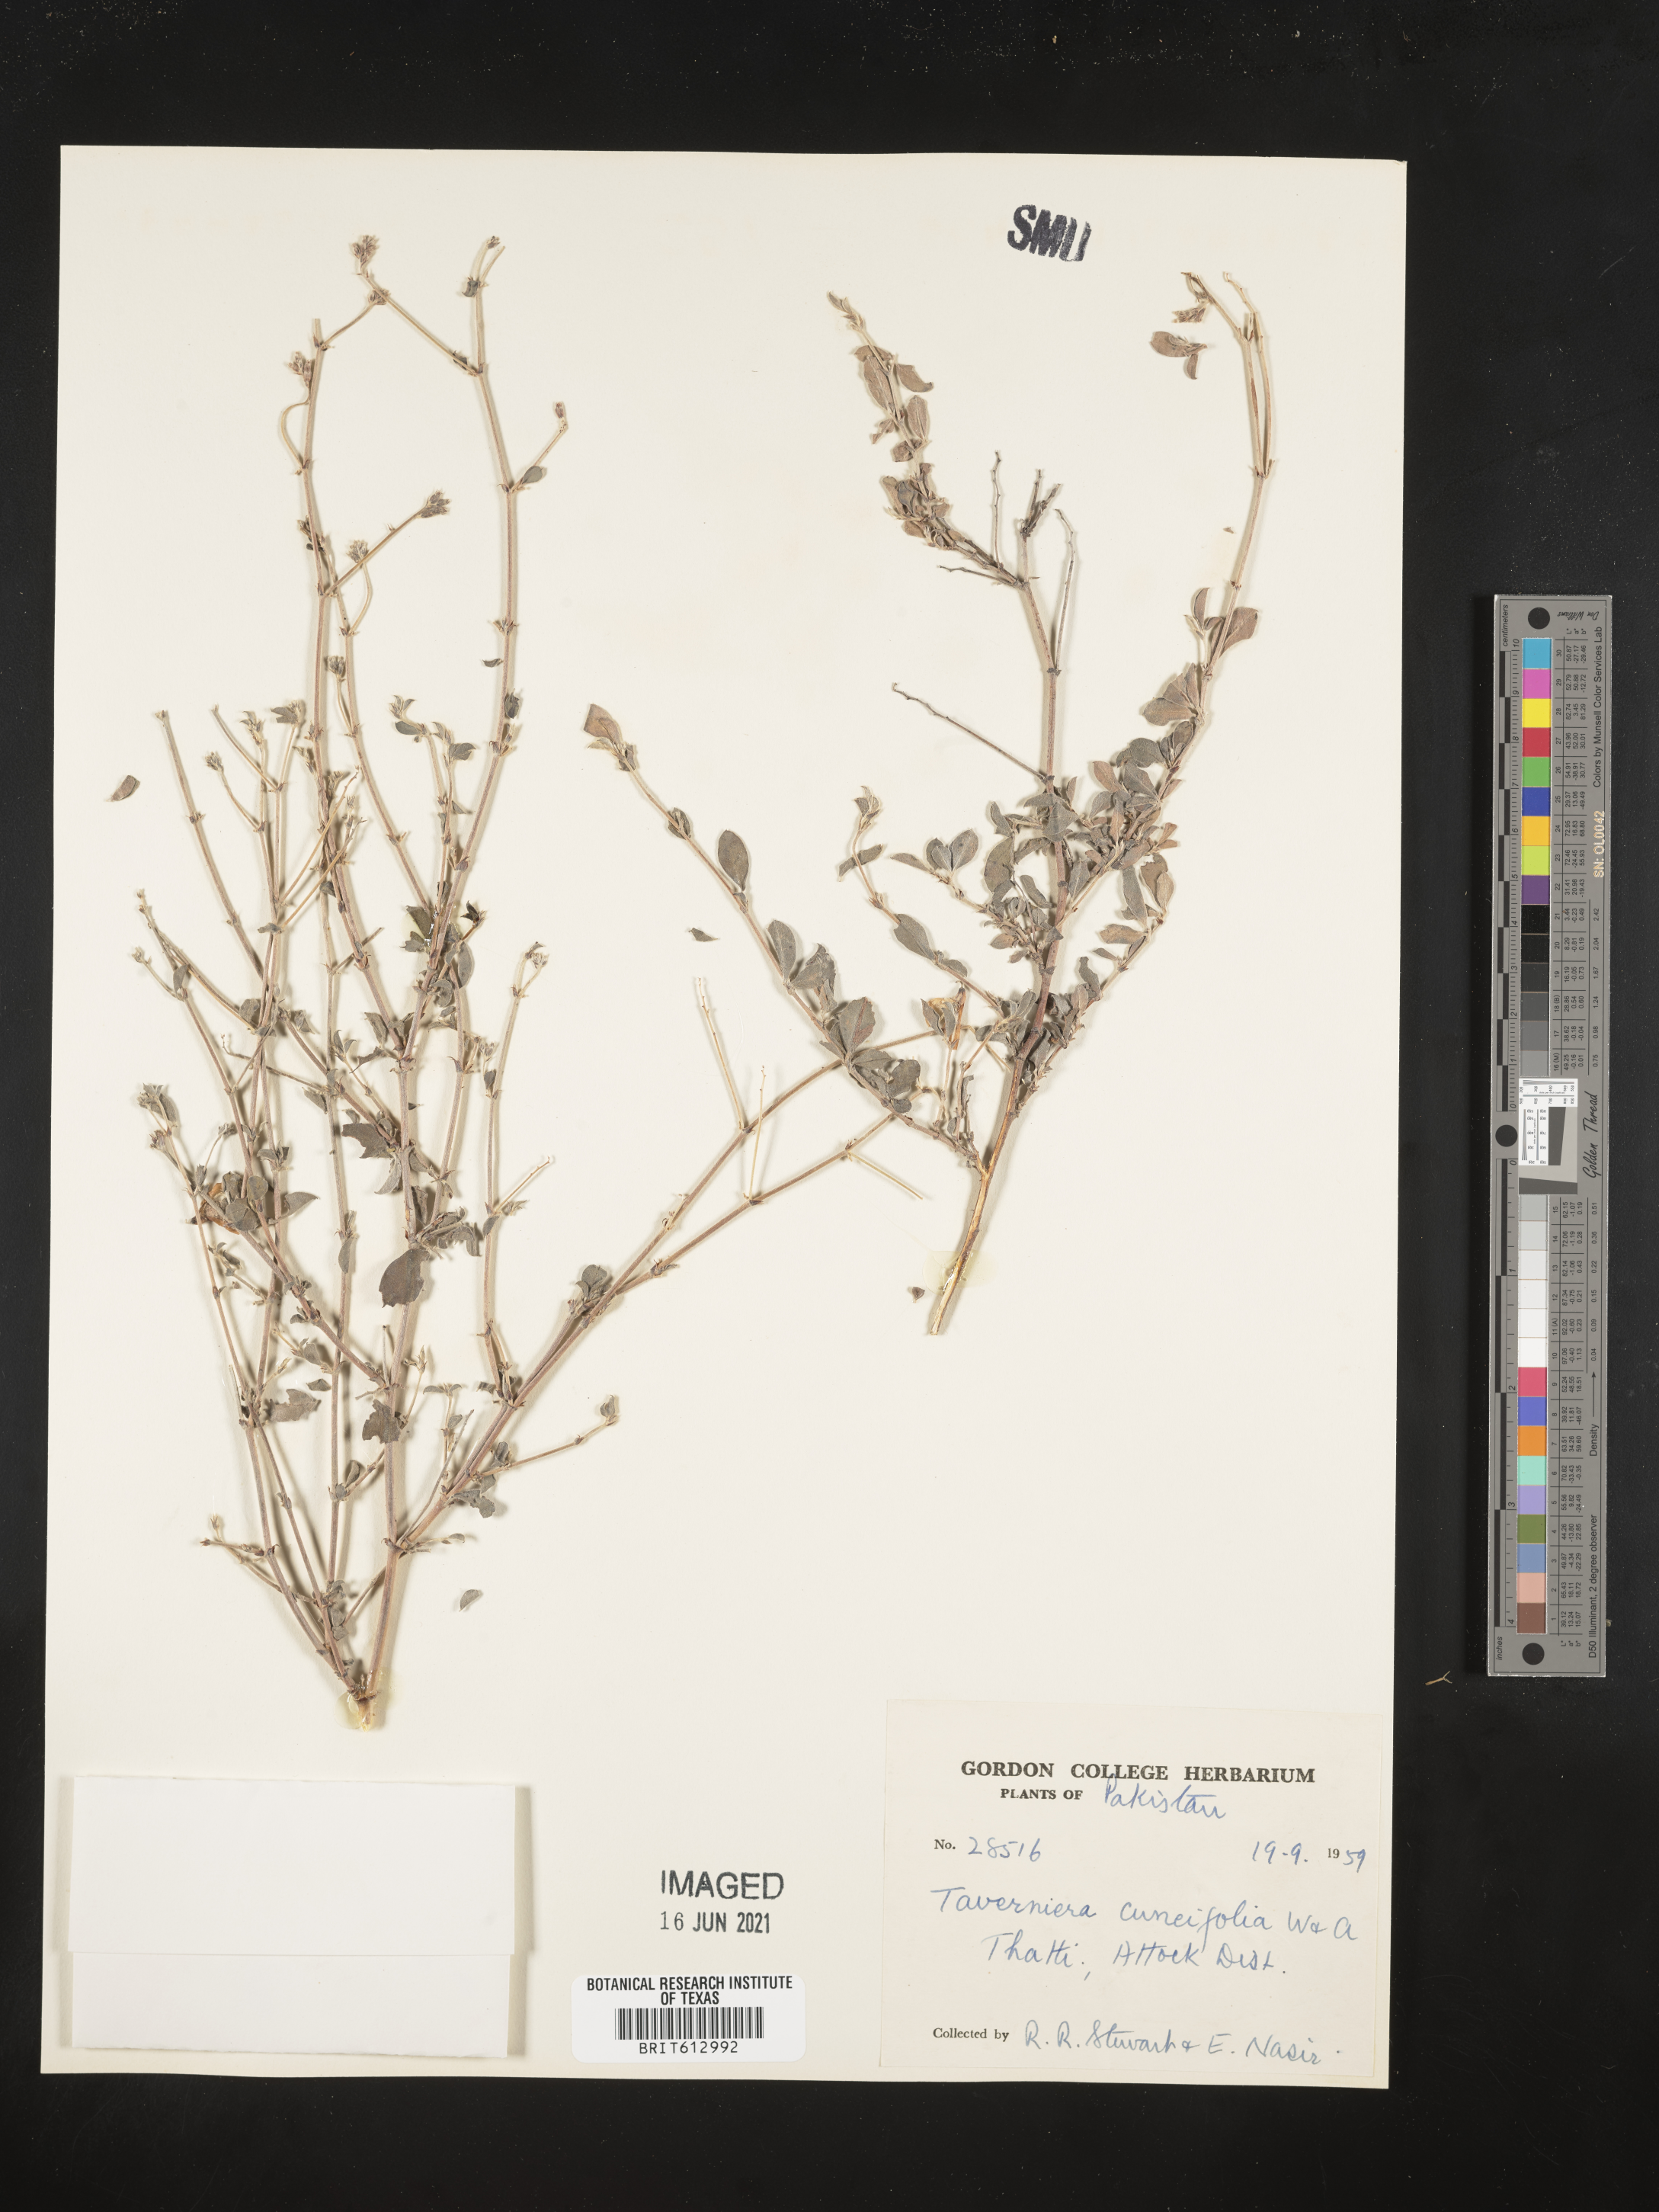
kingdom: Plantae
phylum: Tracheophyta
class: Magnoliopsida
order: Fabales
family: Fabaceae
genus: Taverniera
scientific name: Taverniera cuneifolia
